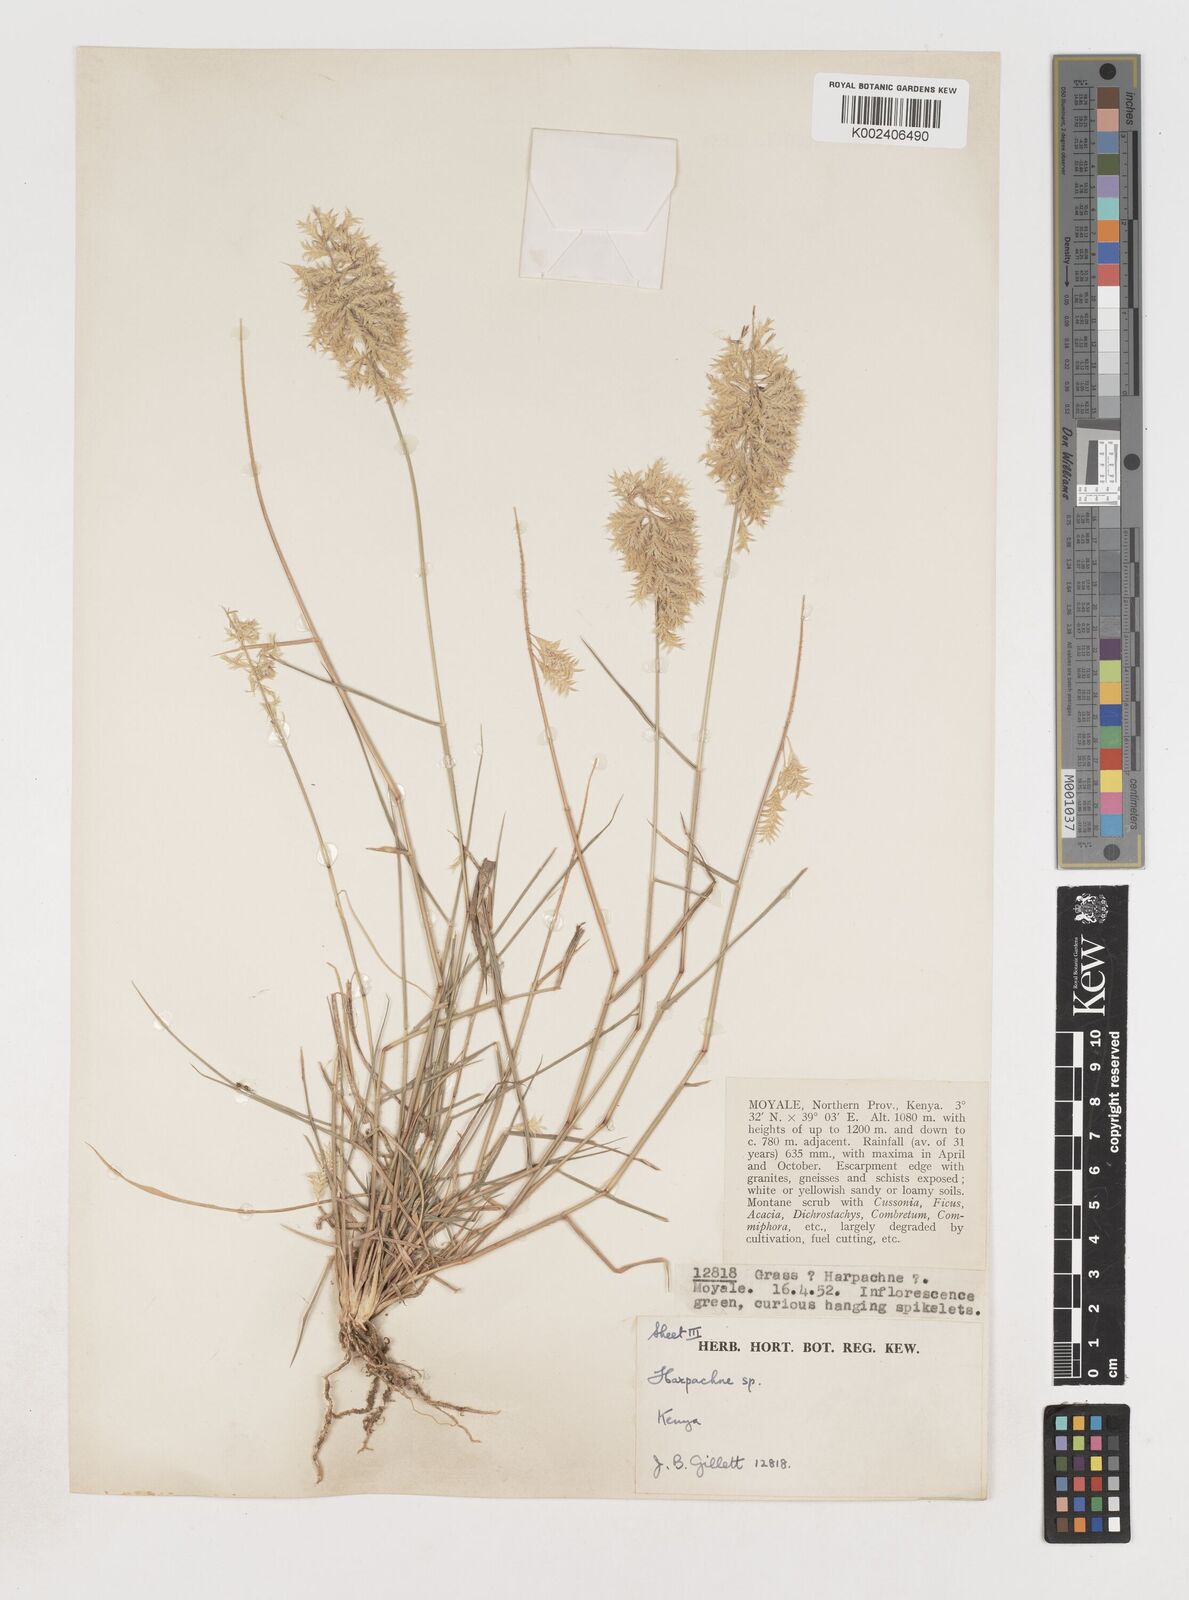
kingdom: Plantae
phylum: Tracheophyta
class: Liliopsida
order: Poales
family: Poaceae
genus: Harpachne
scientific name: Harpachne schimperi
